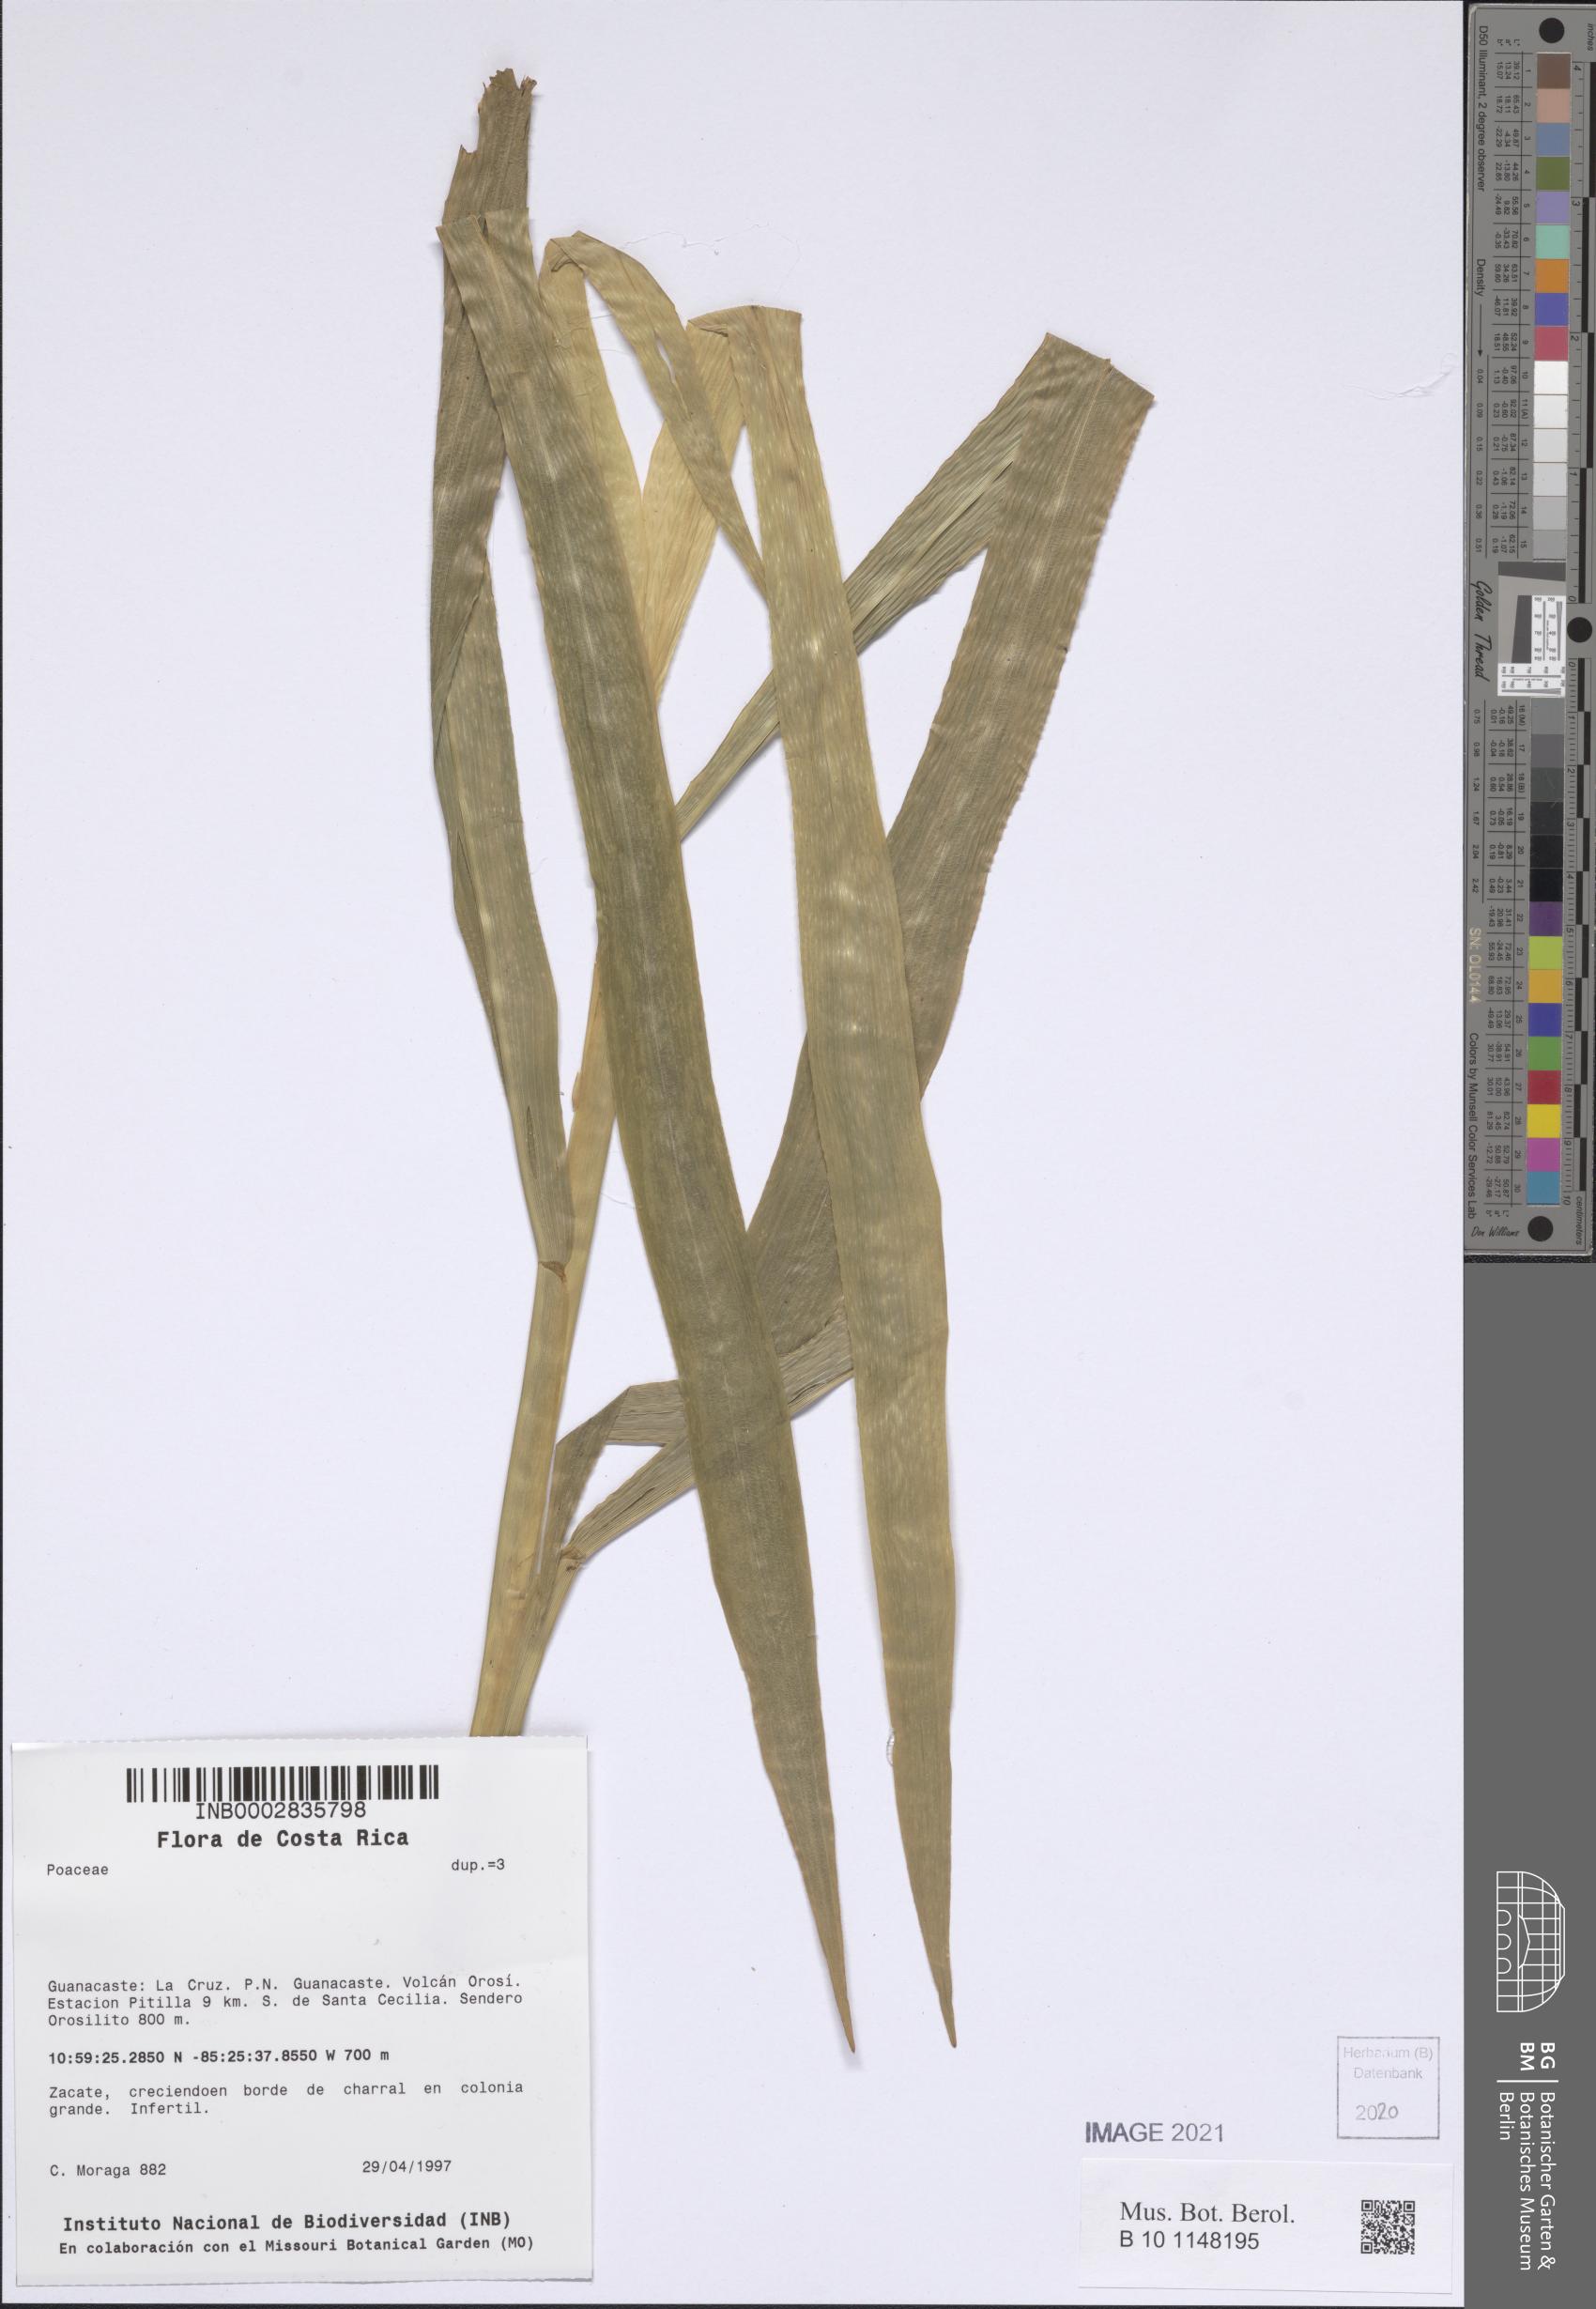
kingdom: Plantae
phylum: Tracheophyta
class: Liliopsida
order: Poales
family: Poaceae
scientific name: Poaceae
